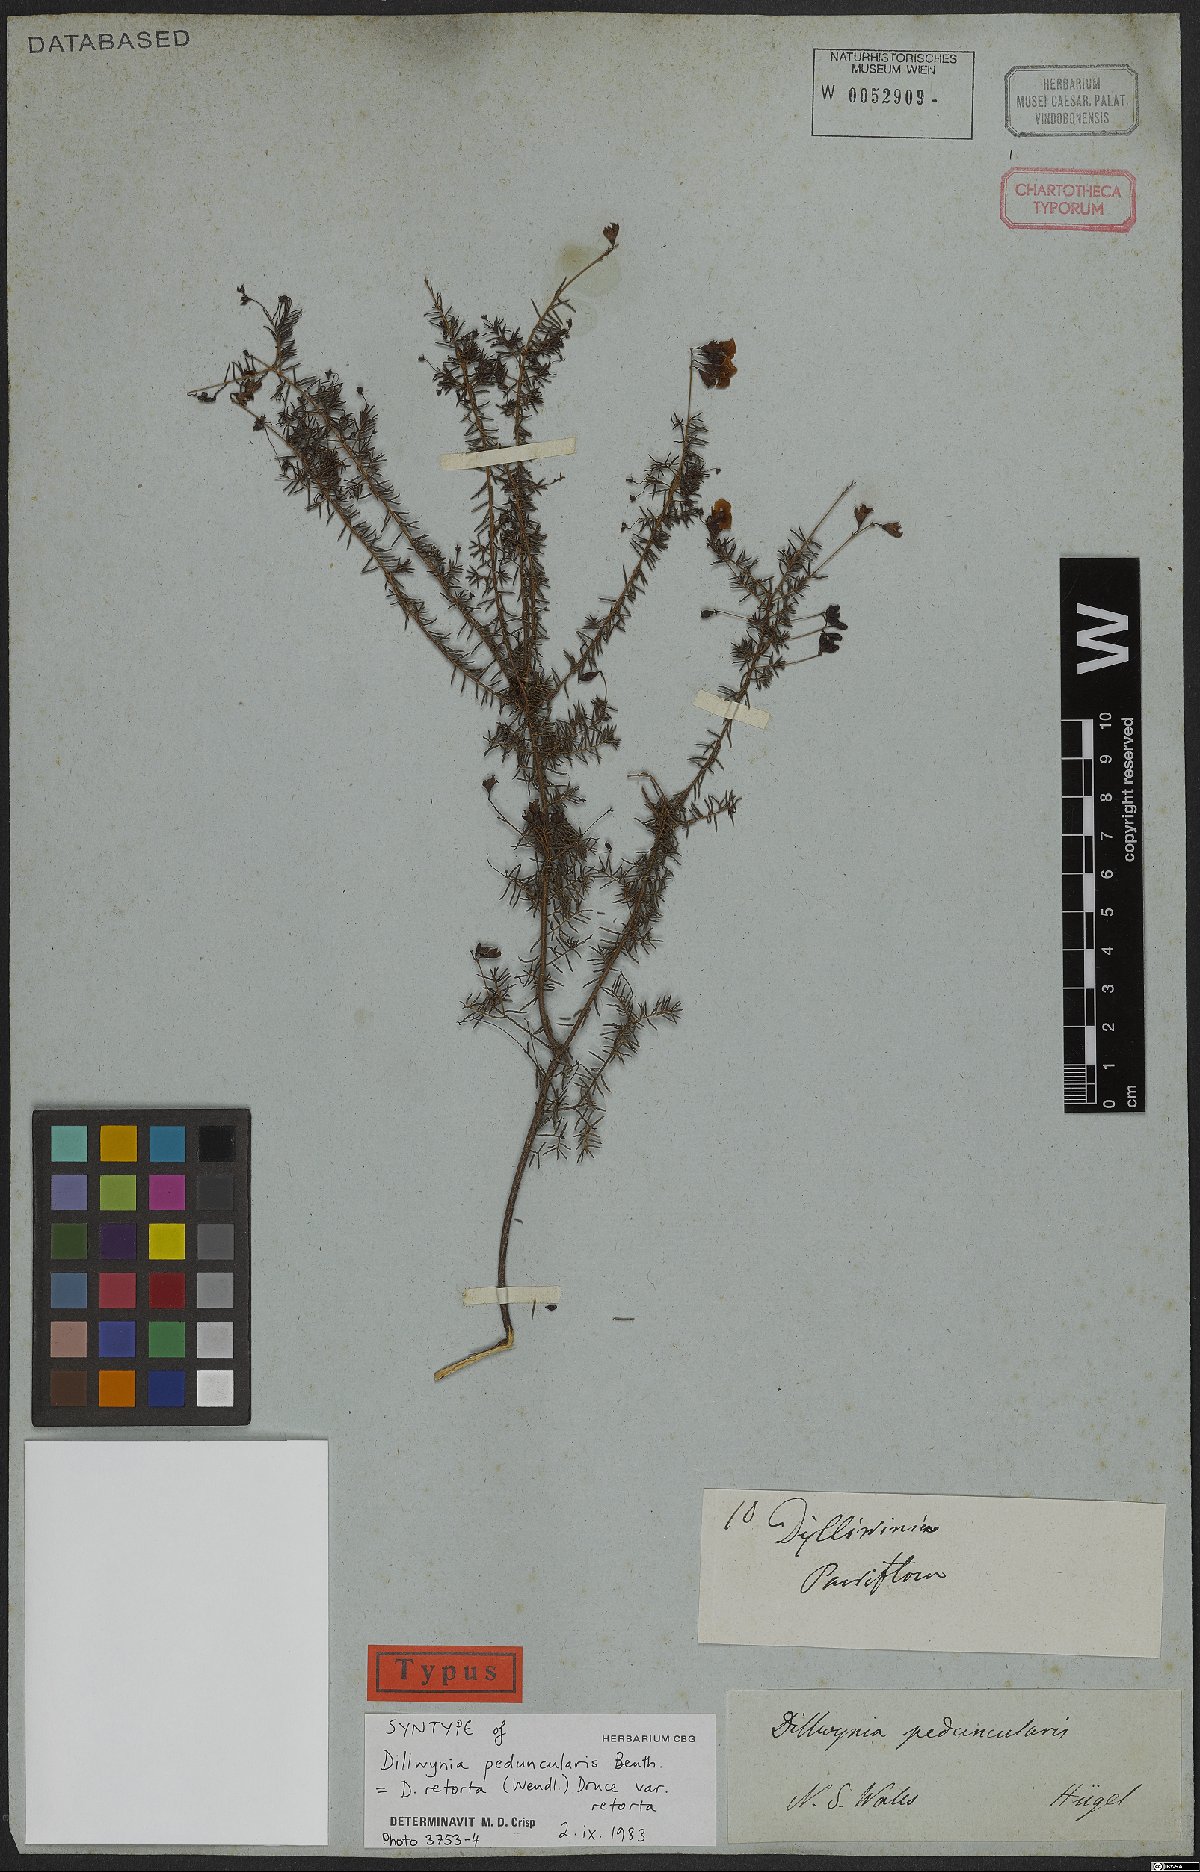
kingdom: Plantae
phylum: Tracheophyta
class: Magnoliopsida
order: Fabales
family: Fabaceae
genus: Dillwynia
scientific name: Dillwynia retorta
